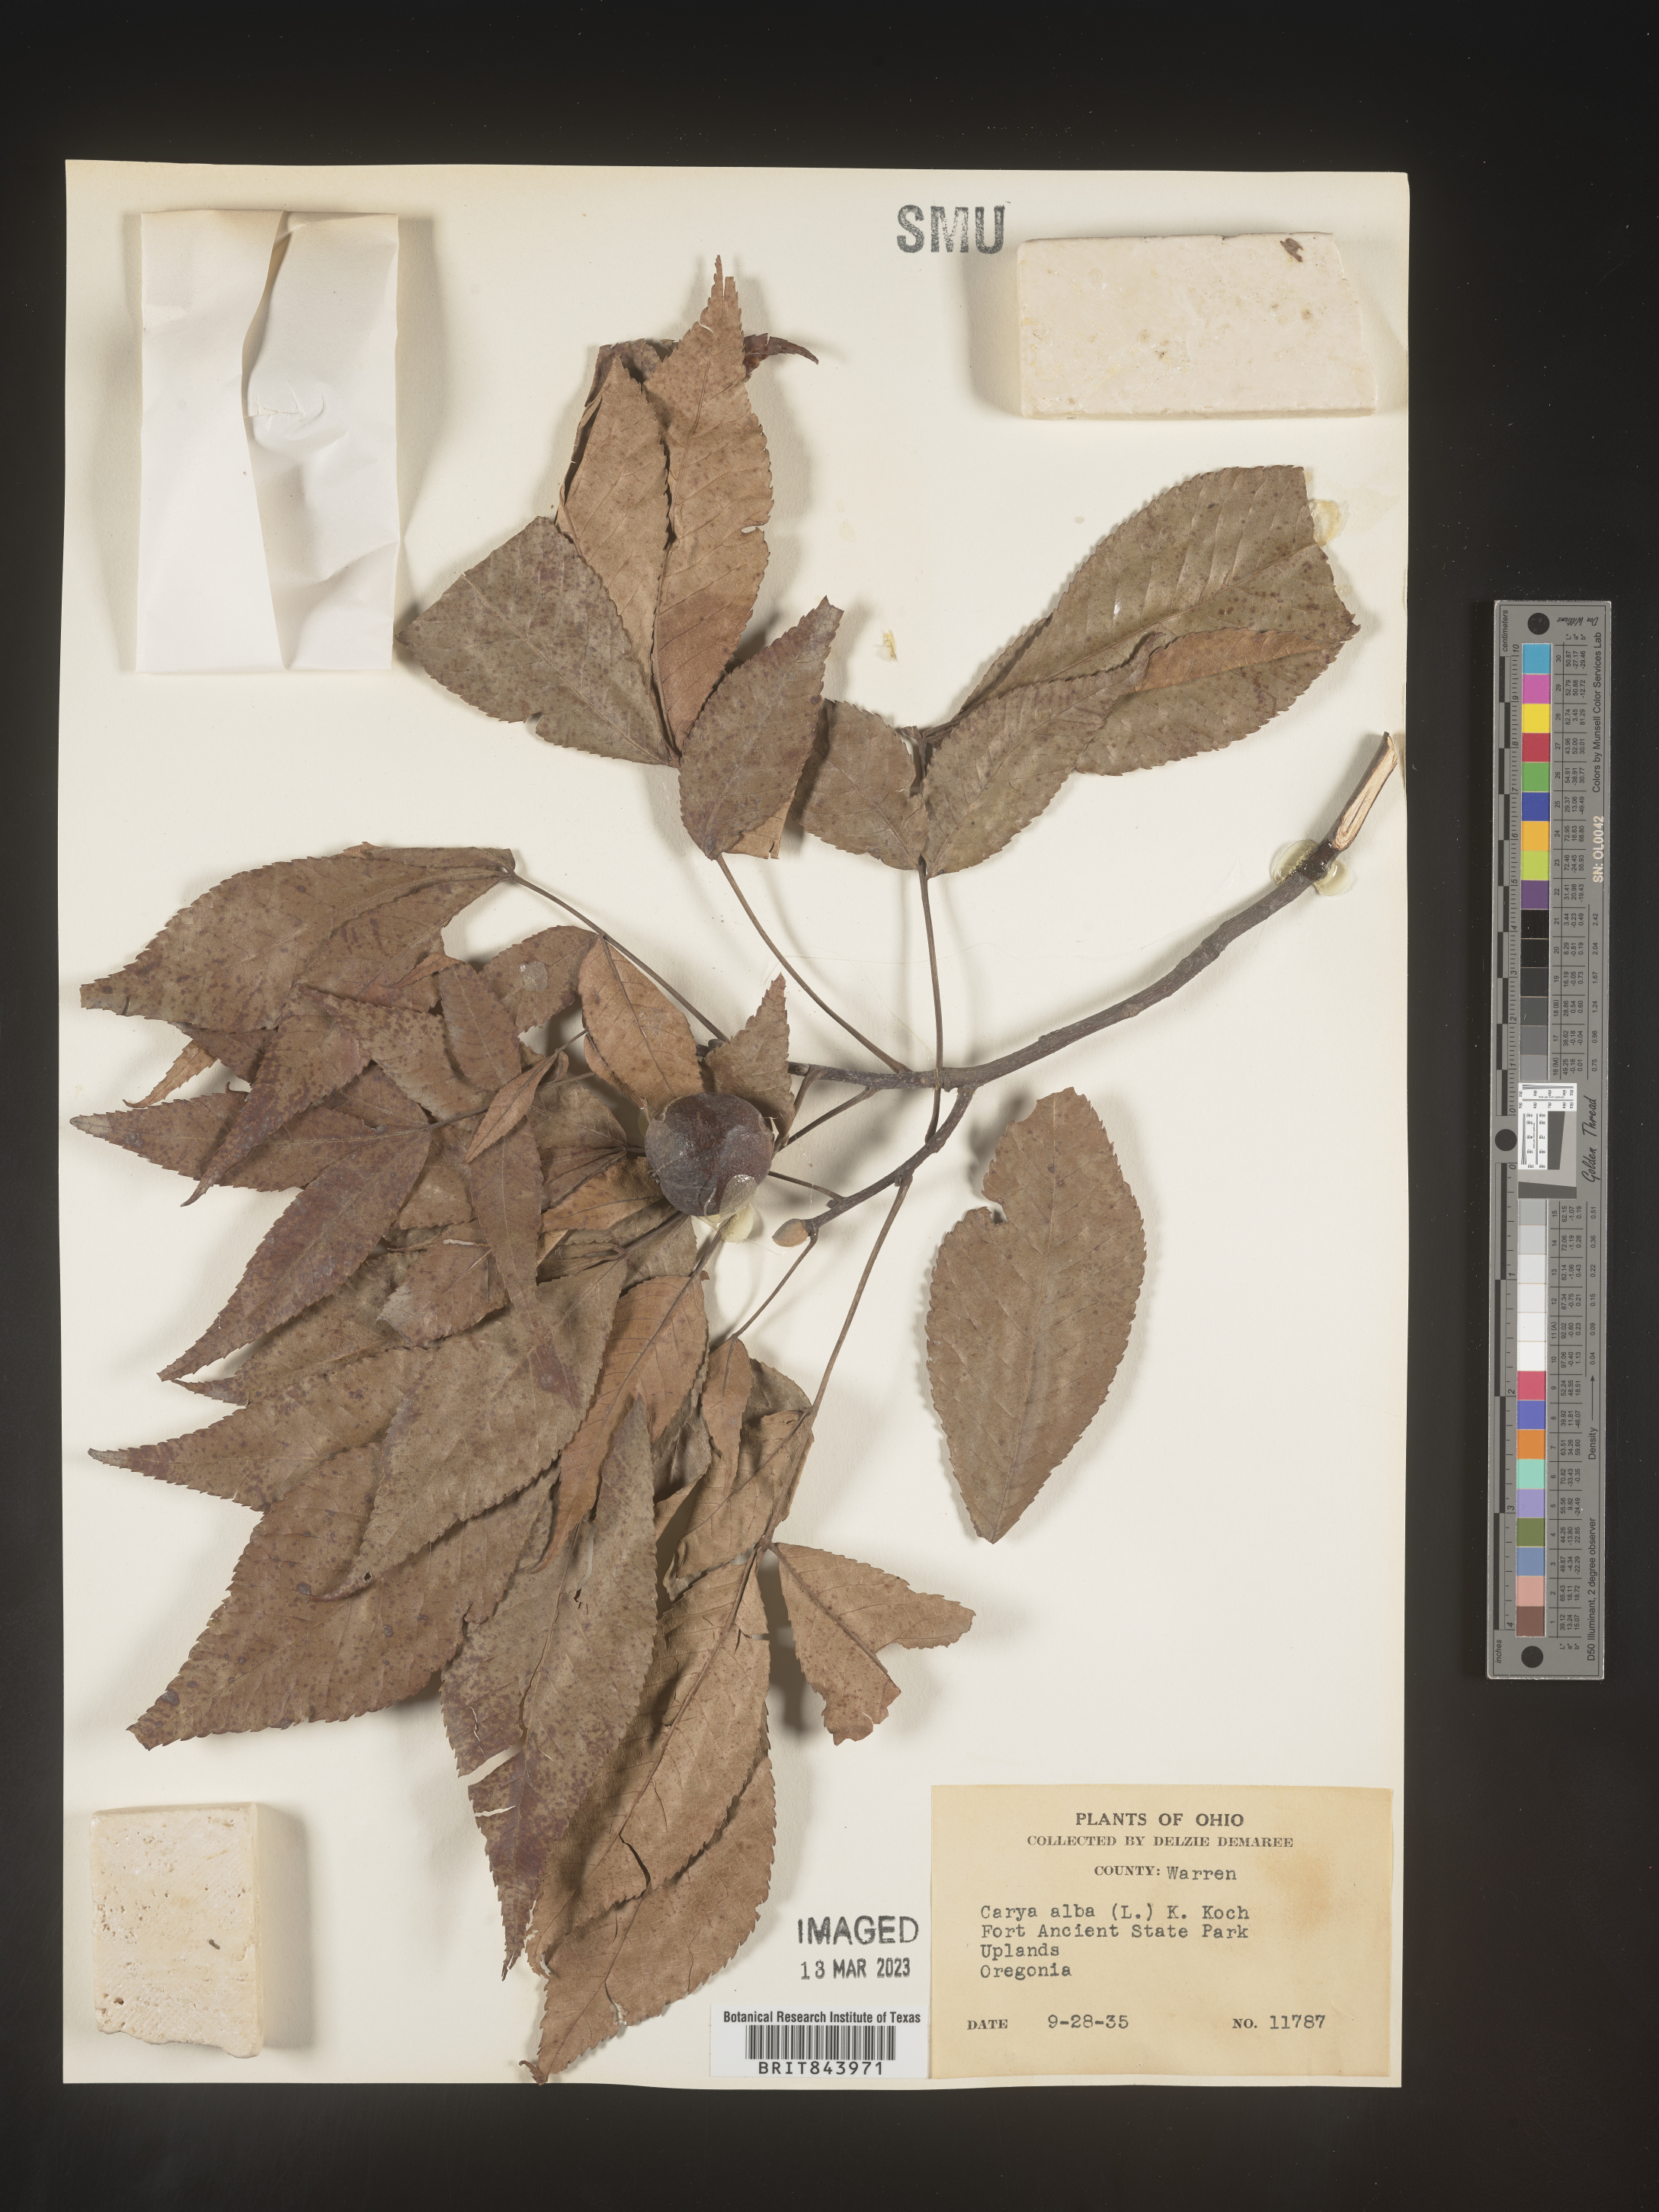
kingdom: Plantae
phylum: Tracheophyta
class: Magnoliopsida
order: Fagales
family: Juglandaceae
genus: Carya
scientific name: Carya alba
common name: Mockernut hickory
